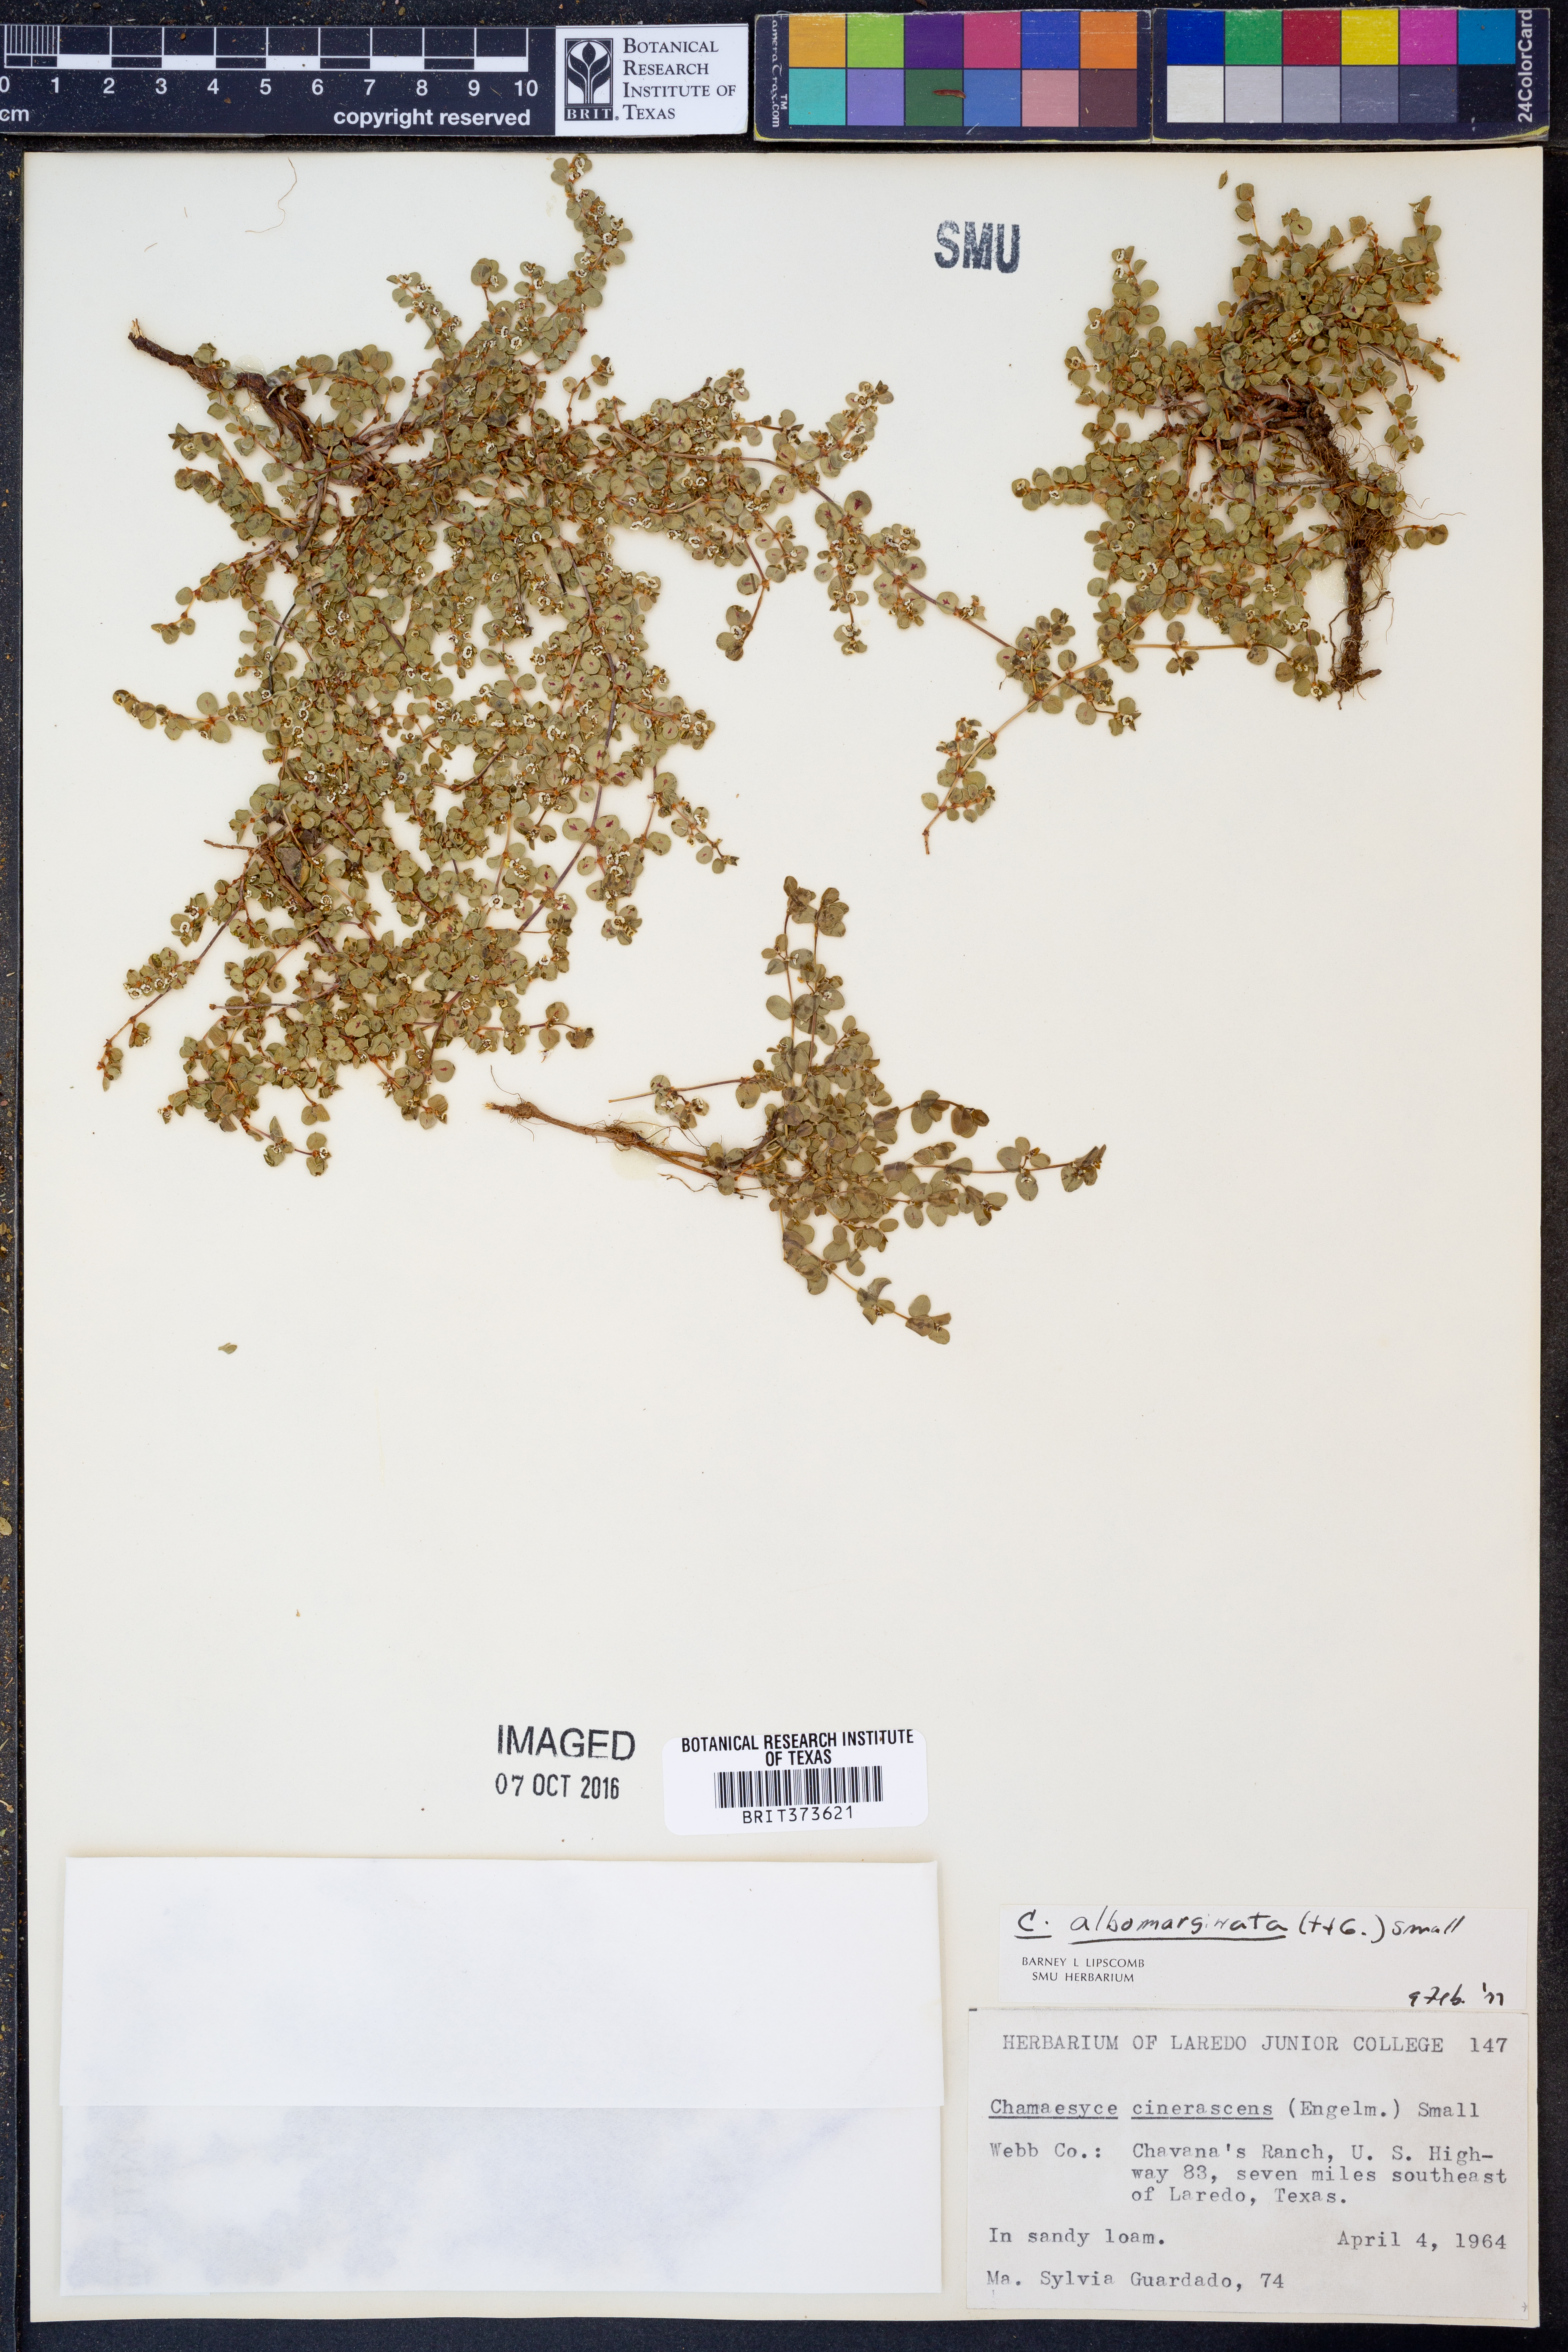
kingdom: Plantae
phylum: Tracheophyta
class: Magnoliopsida
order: Malpighiales
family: Euphorbiaceae
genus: Euphorbia
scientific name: Euphorbia albomarginata
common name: Whitemargin sandmat
